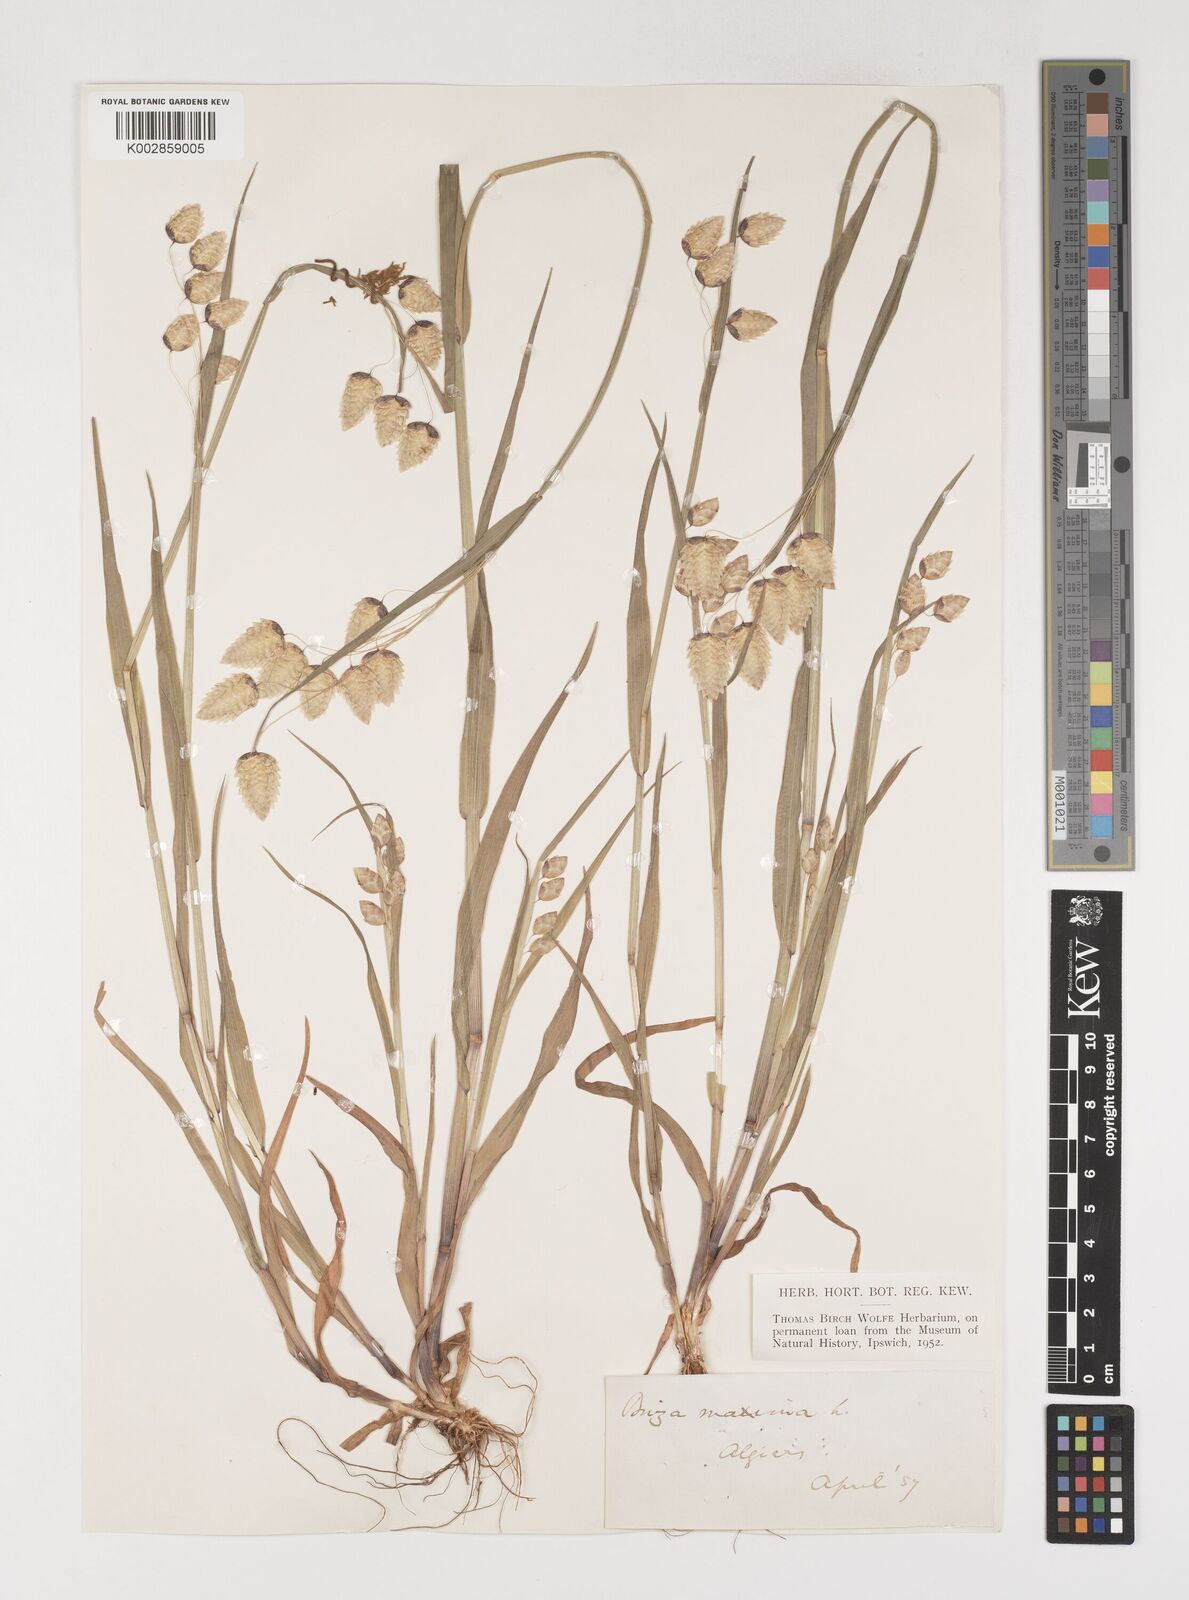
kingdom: Plantae
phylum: Tracheophyta
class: Liliopsida
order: Poales
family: Poaceae
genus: Briza
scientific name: Briza maxima
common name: Big quakinggrass
